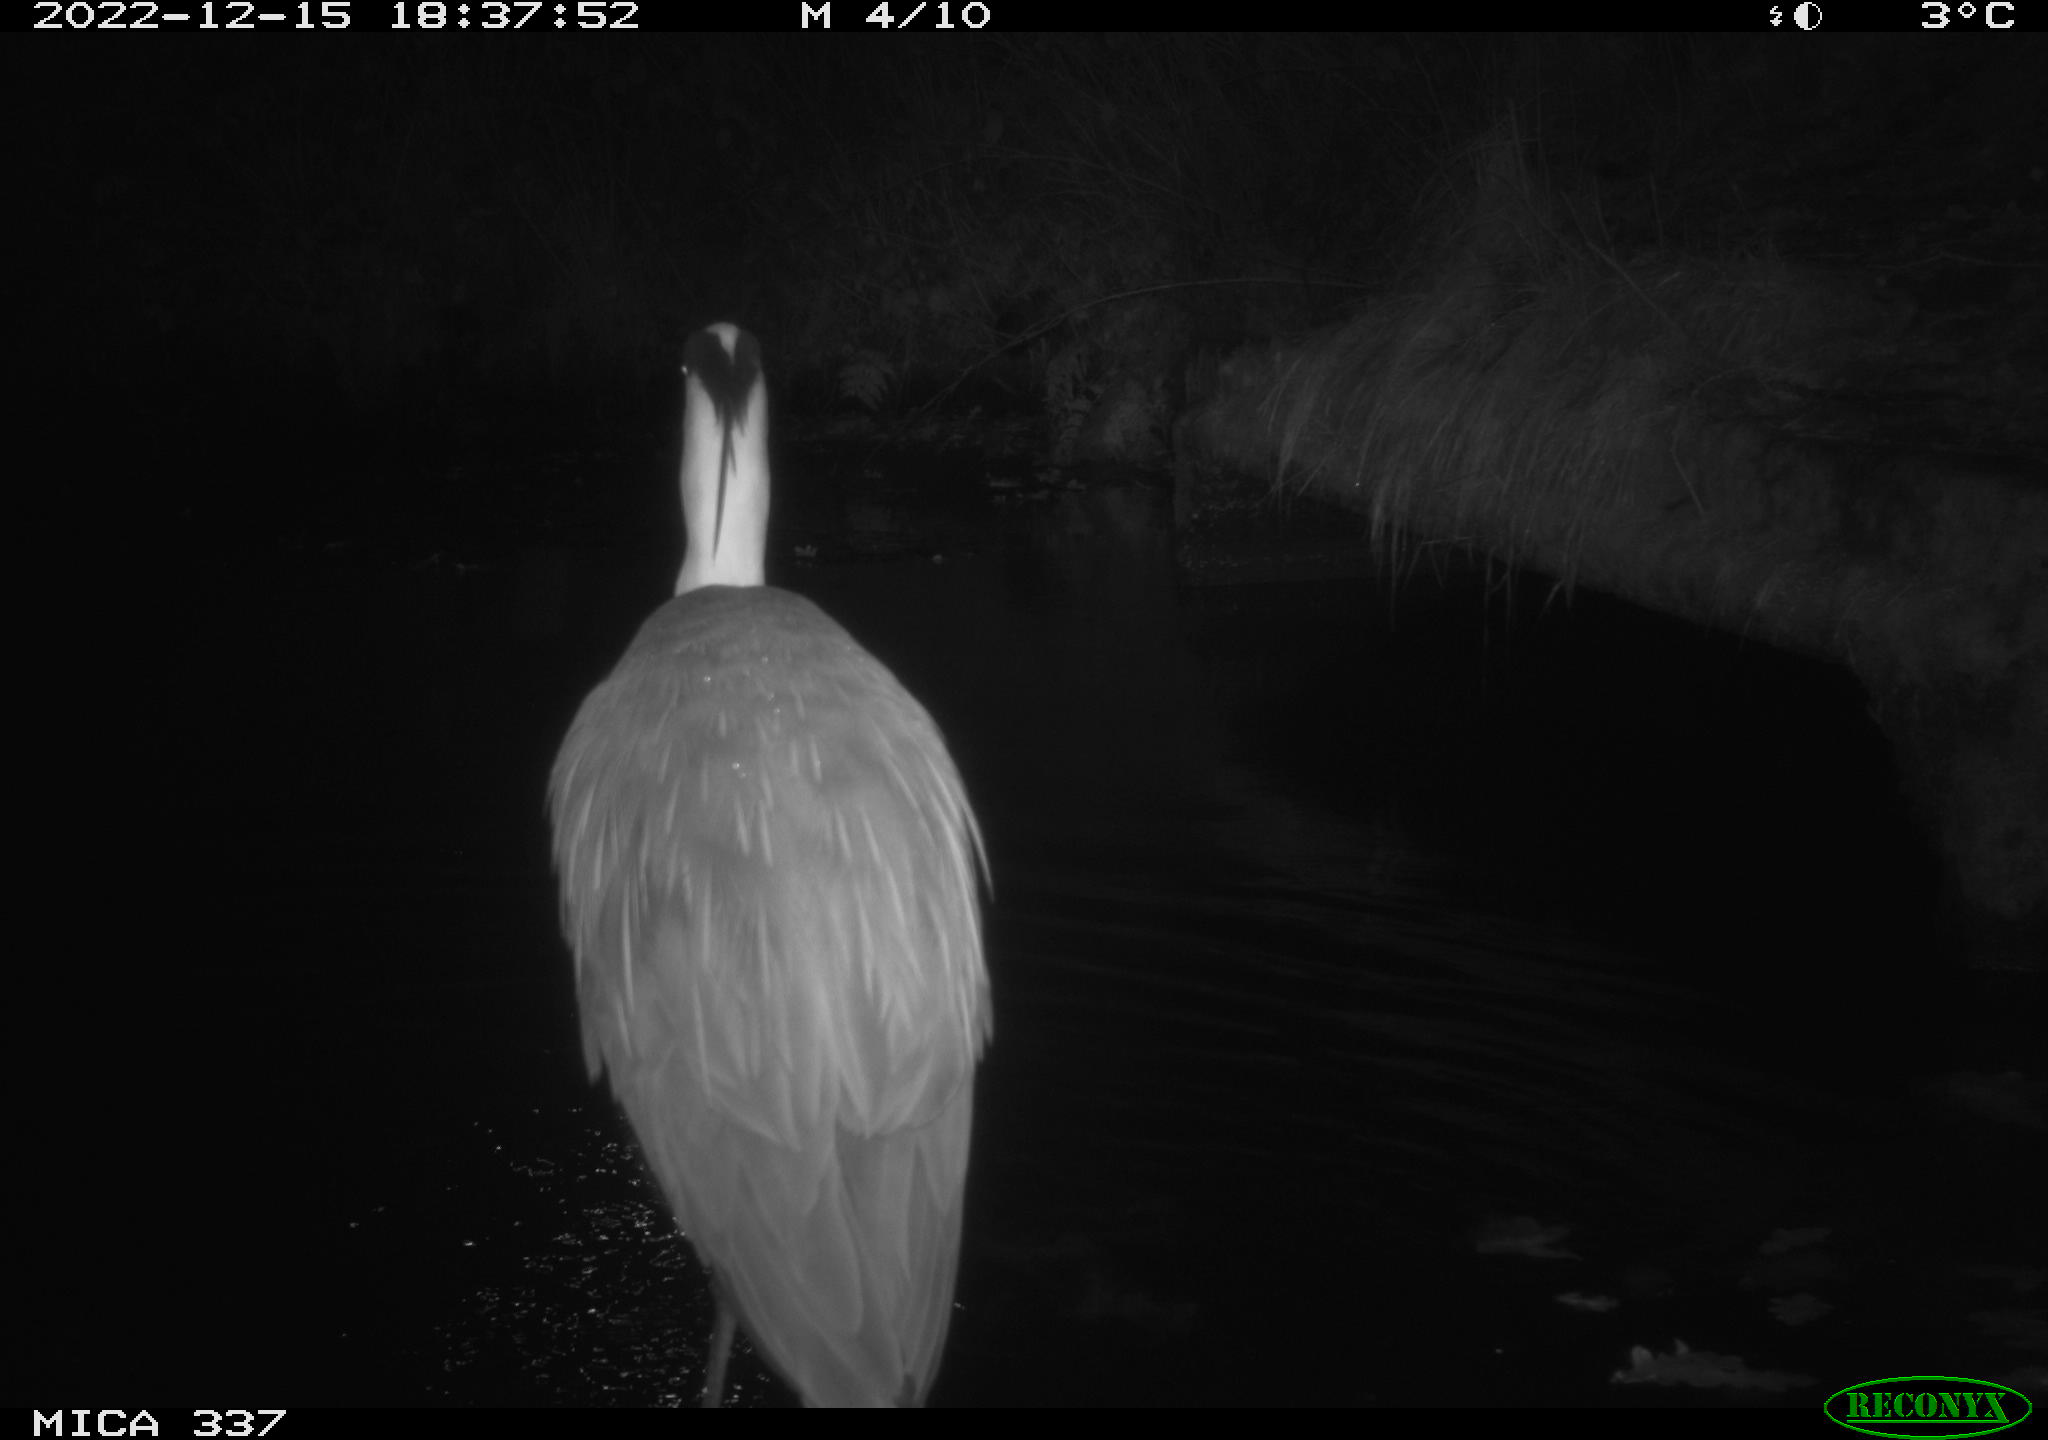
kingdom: Animalia
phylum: Chordata
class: Aves
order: Pelecaniformes
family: Ardeidae
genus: Ardea
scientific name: Ardea cinerea
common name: Grey heron
